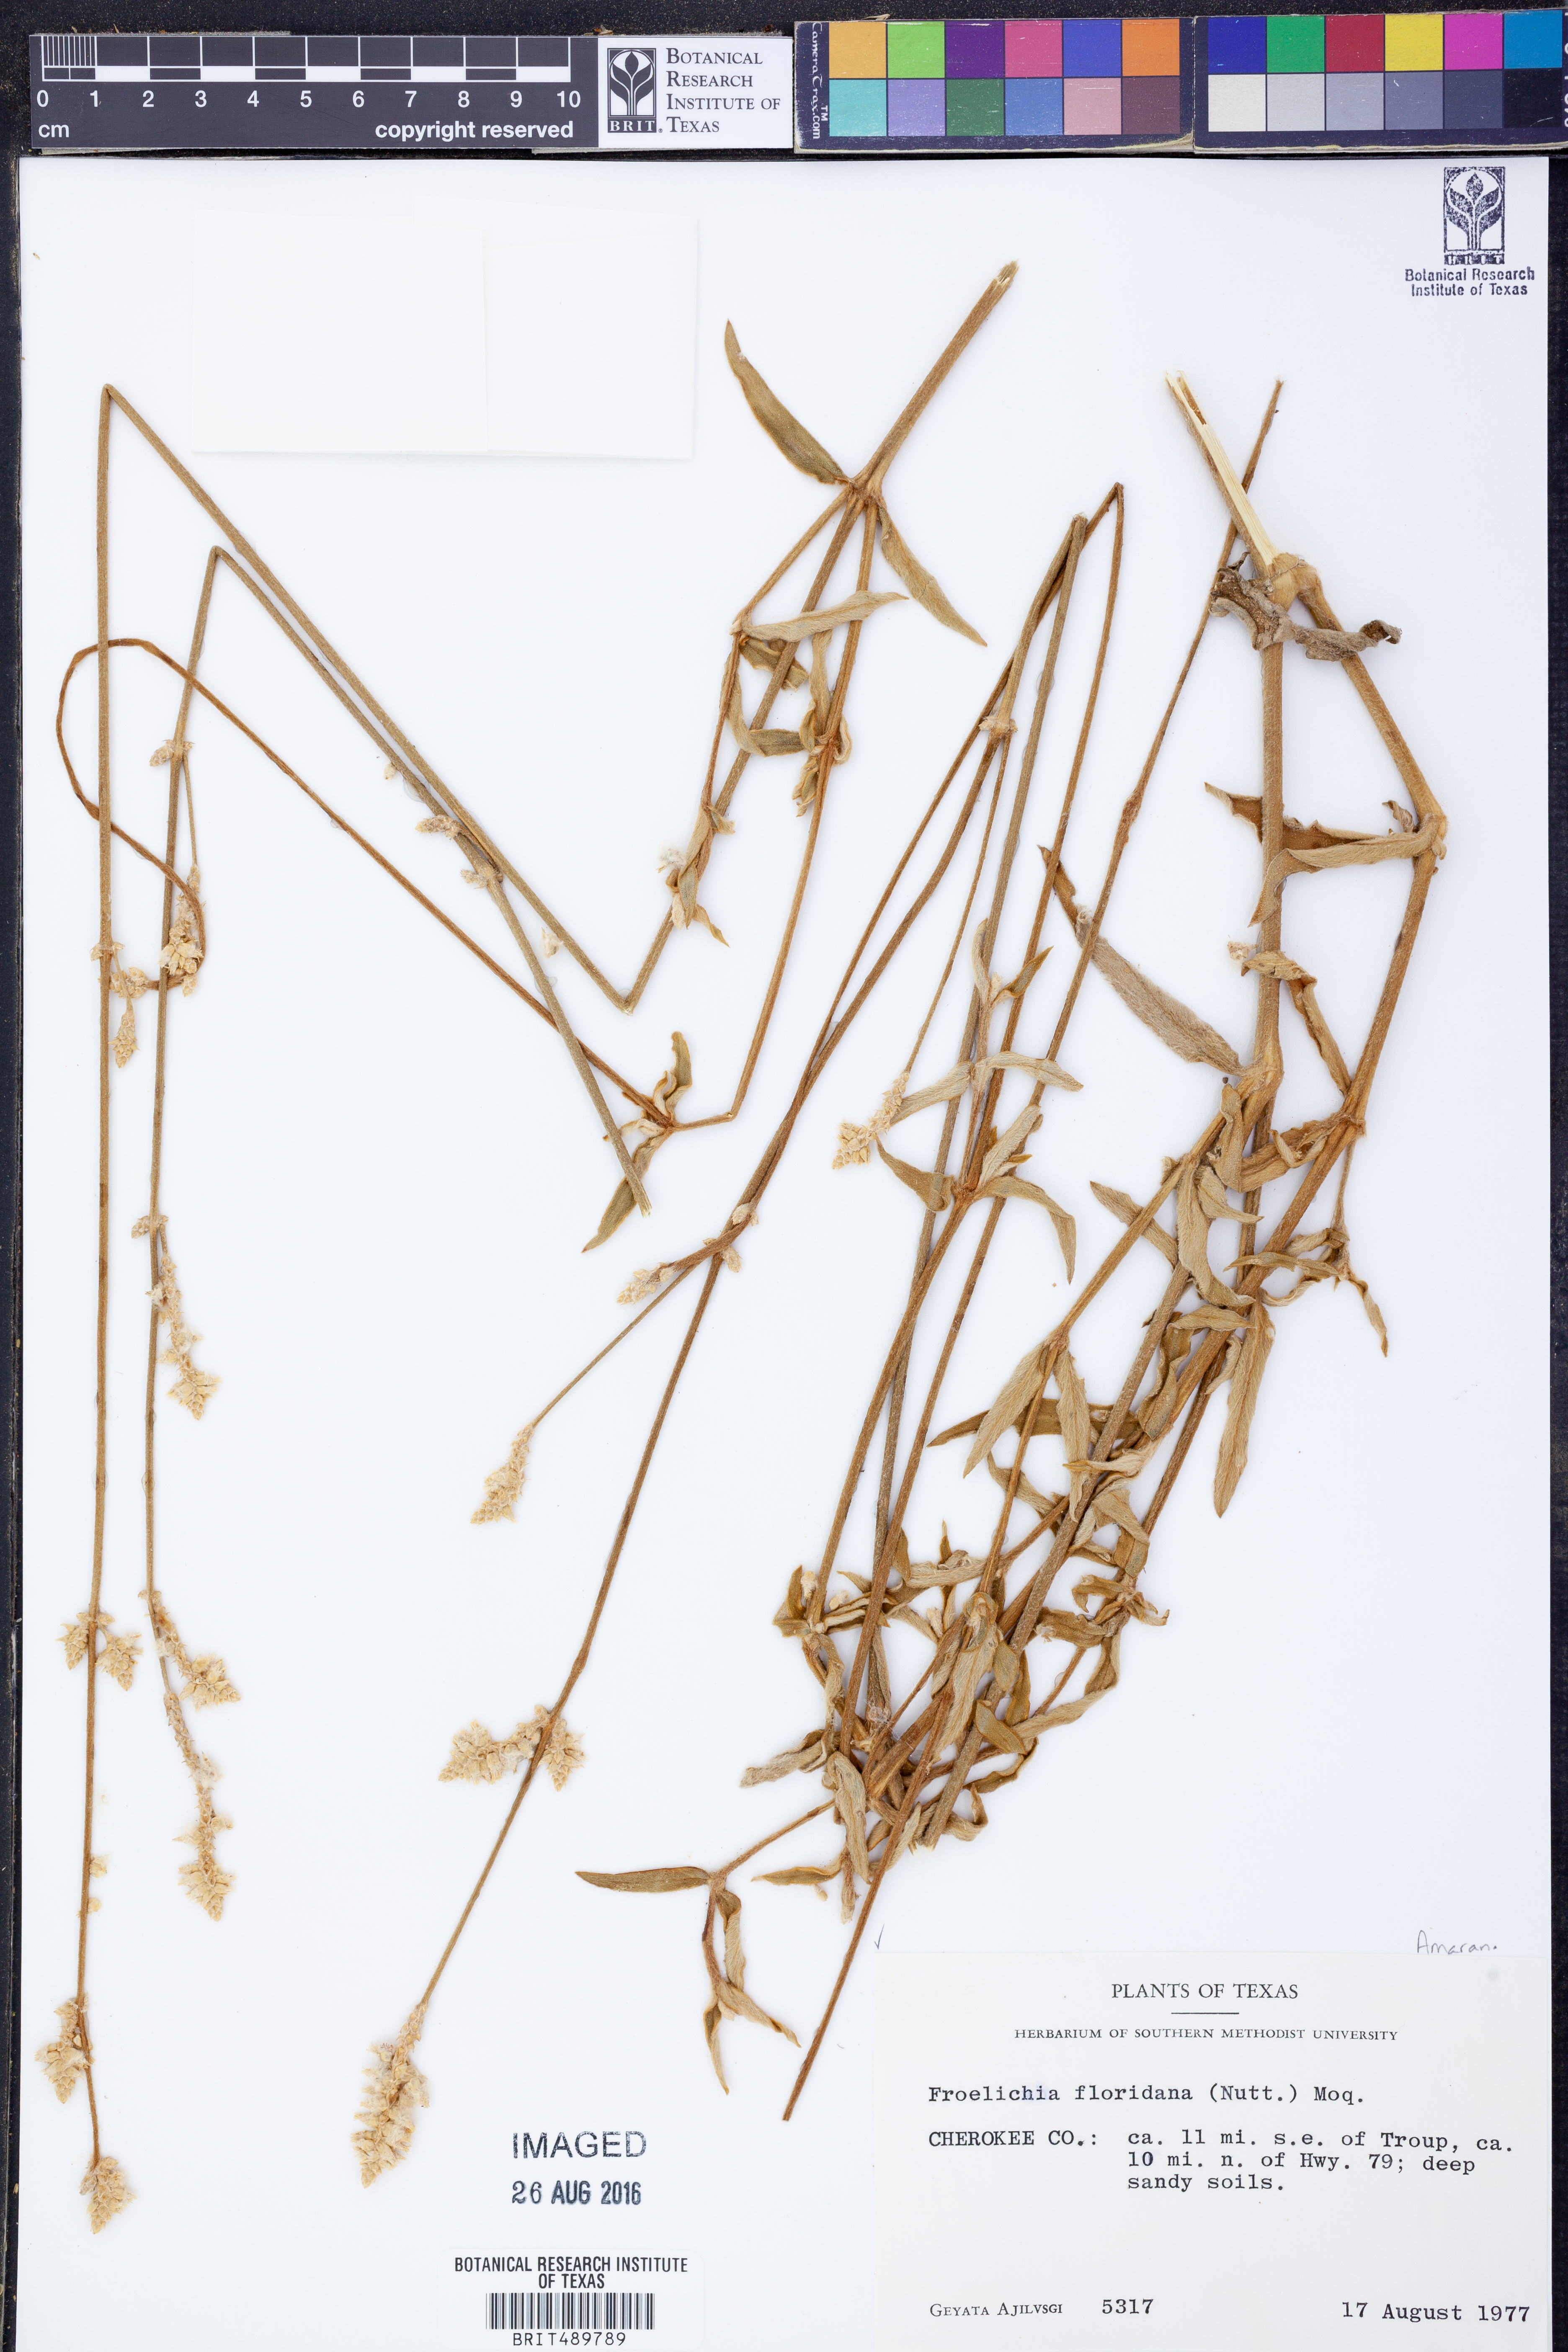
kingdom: Plantae
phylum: Tracheophyta
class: Magnoliopsida
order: Caryophyllales
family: Amaranthaceae
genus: Froelichia
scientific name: Froelichia floridana
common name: Florida snake-cotton
